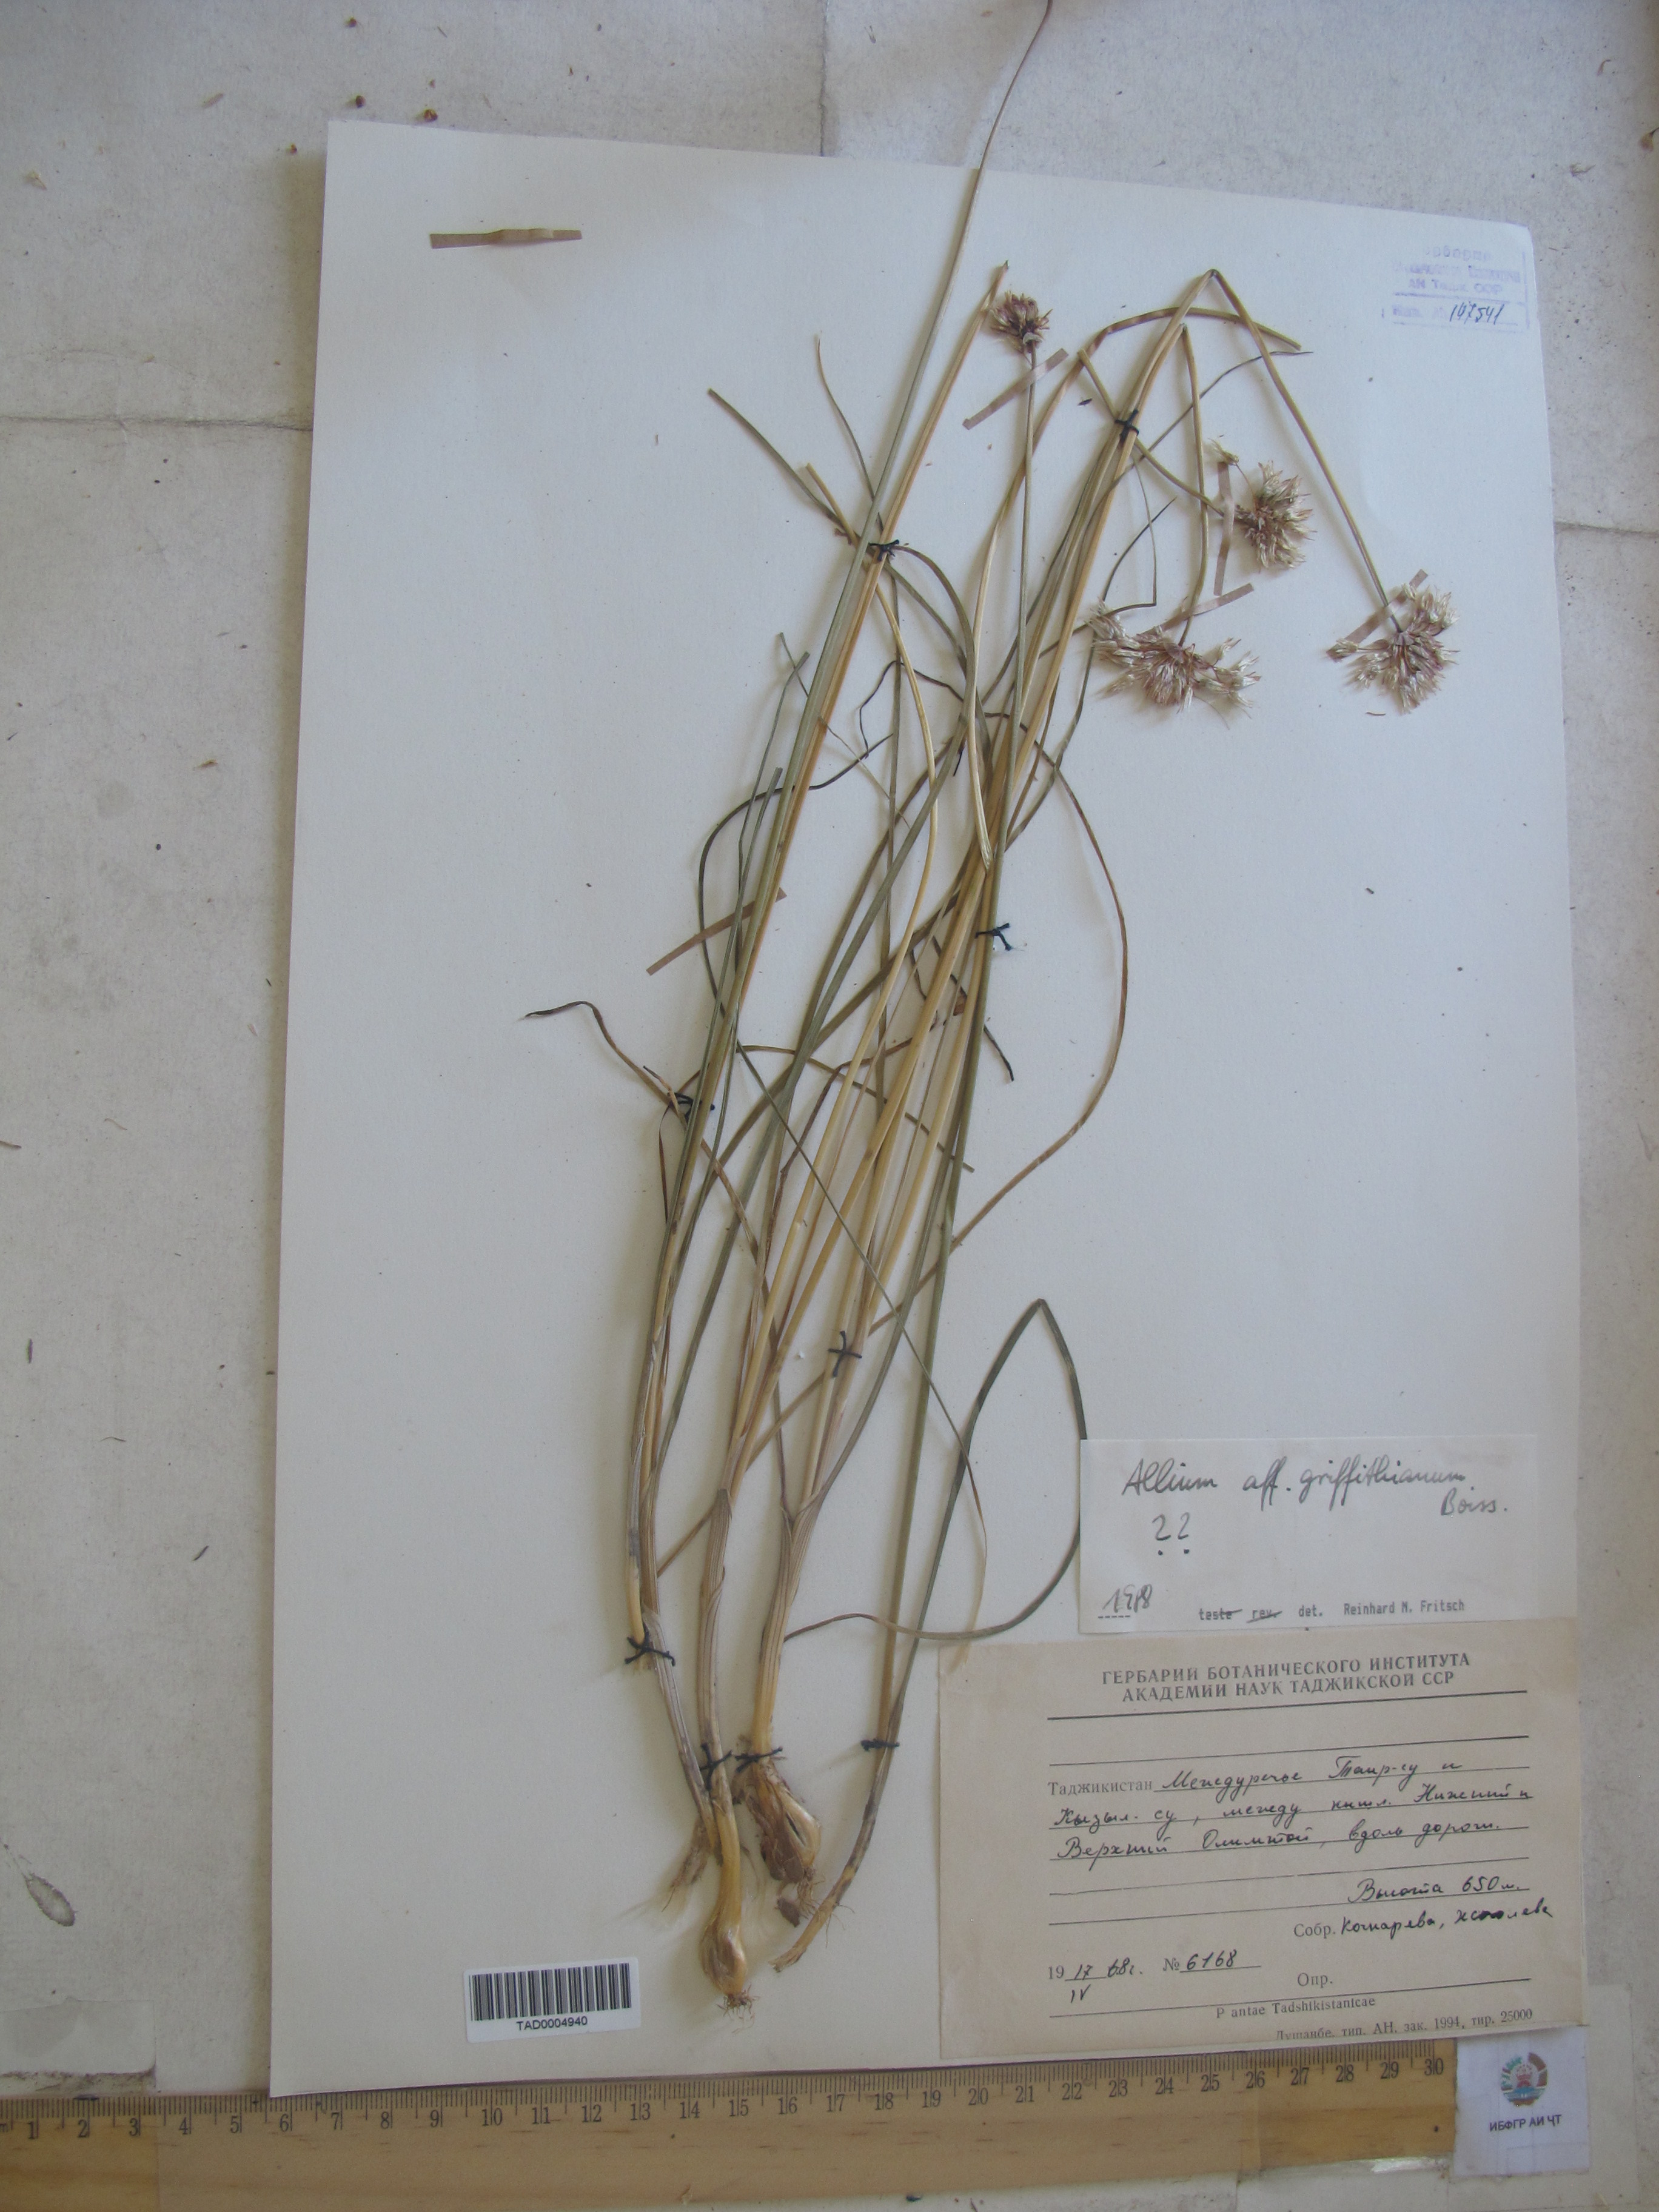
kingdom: Plantae
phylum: Tracheophyta
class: Liliopsida
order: Asparagales
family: Amaryllidaceae
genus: Allium
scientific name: Allium
